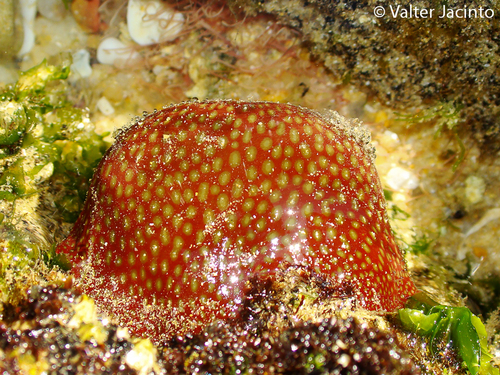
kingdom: Animalia
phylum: Cnidaria
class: Anthozoa
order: Actiniaria
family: Actiniidae
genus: Actinia
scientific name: Actinia fragacea
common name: Strawberry anemone
